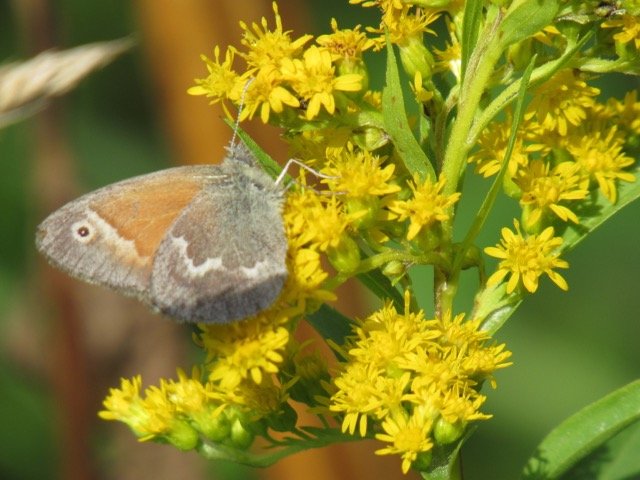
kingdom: Animalia
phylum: Arthropoda
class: Insecta
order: Lepidoptera
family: Nymphalidae
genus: Coenonympha
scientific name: Coenonympha tullia
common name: Large Heath
